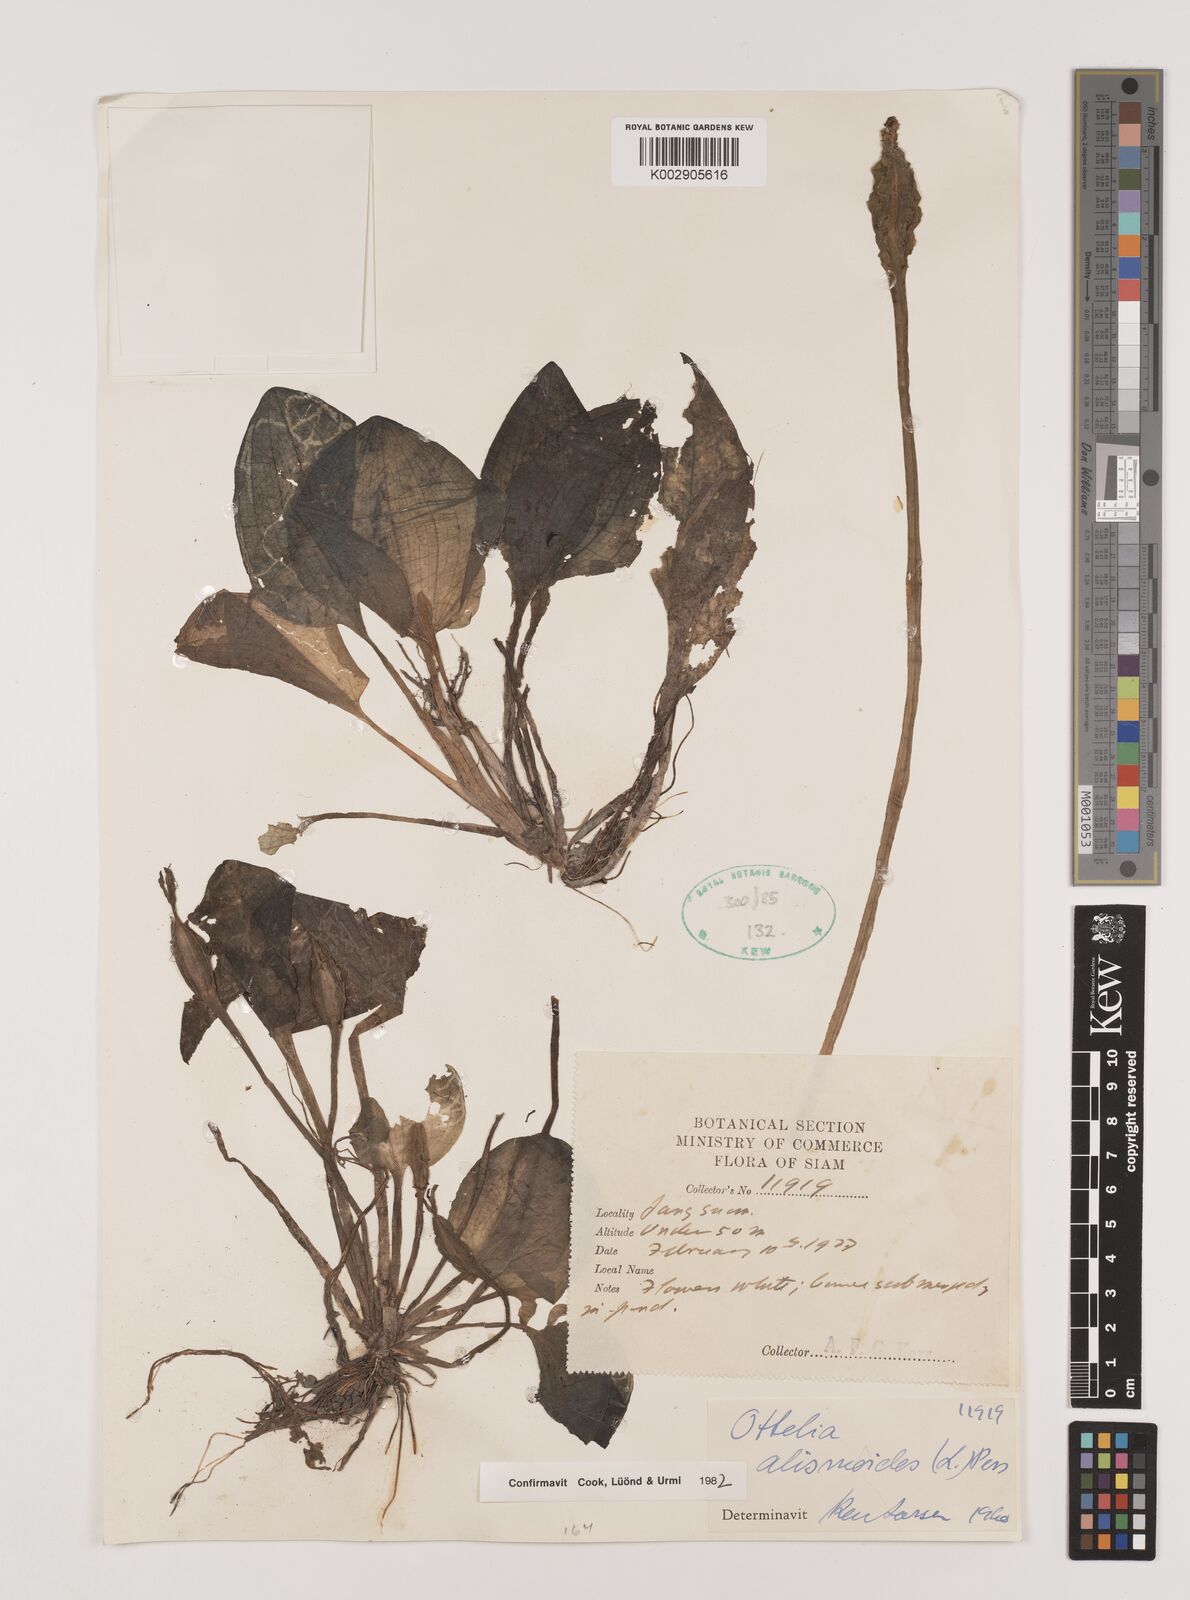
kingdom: Plantae
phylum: Tracheophyta
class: Liliopsida
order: Alismatales
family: Hydrocharitaceae
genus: Ottelia
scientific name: Ottelia alismoides
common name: Duck-lettuce
